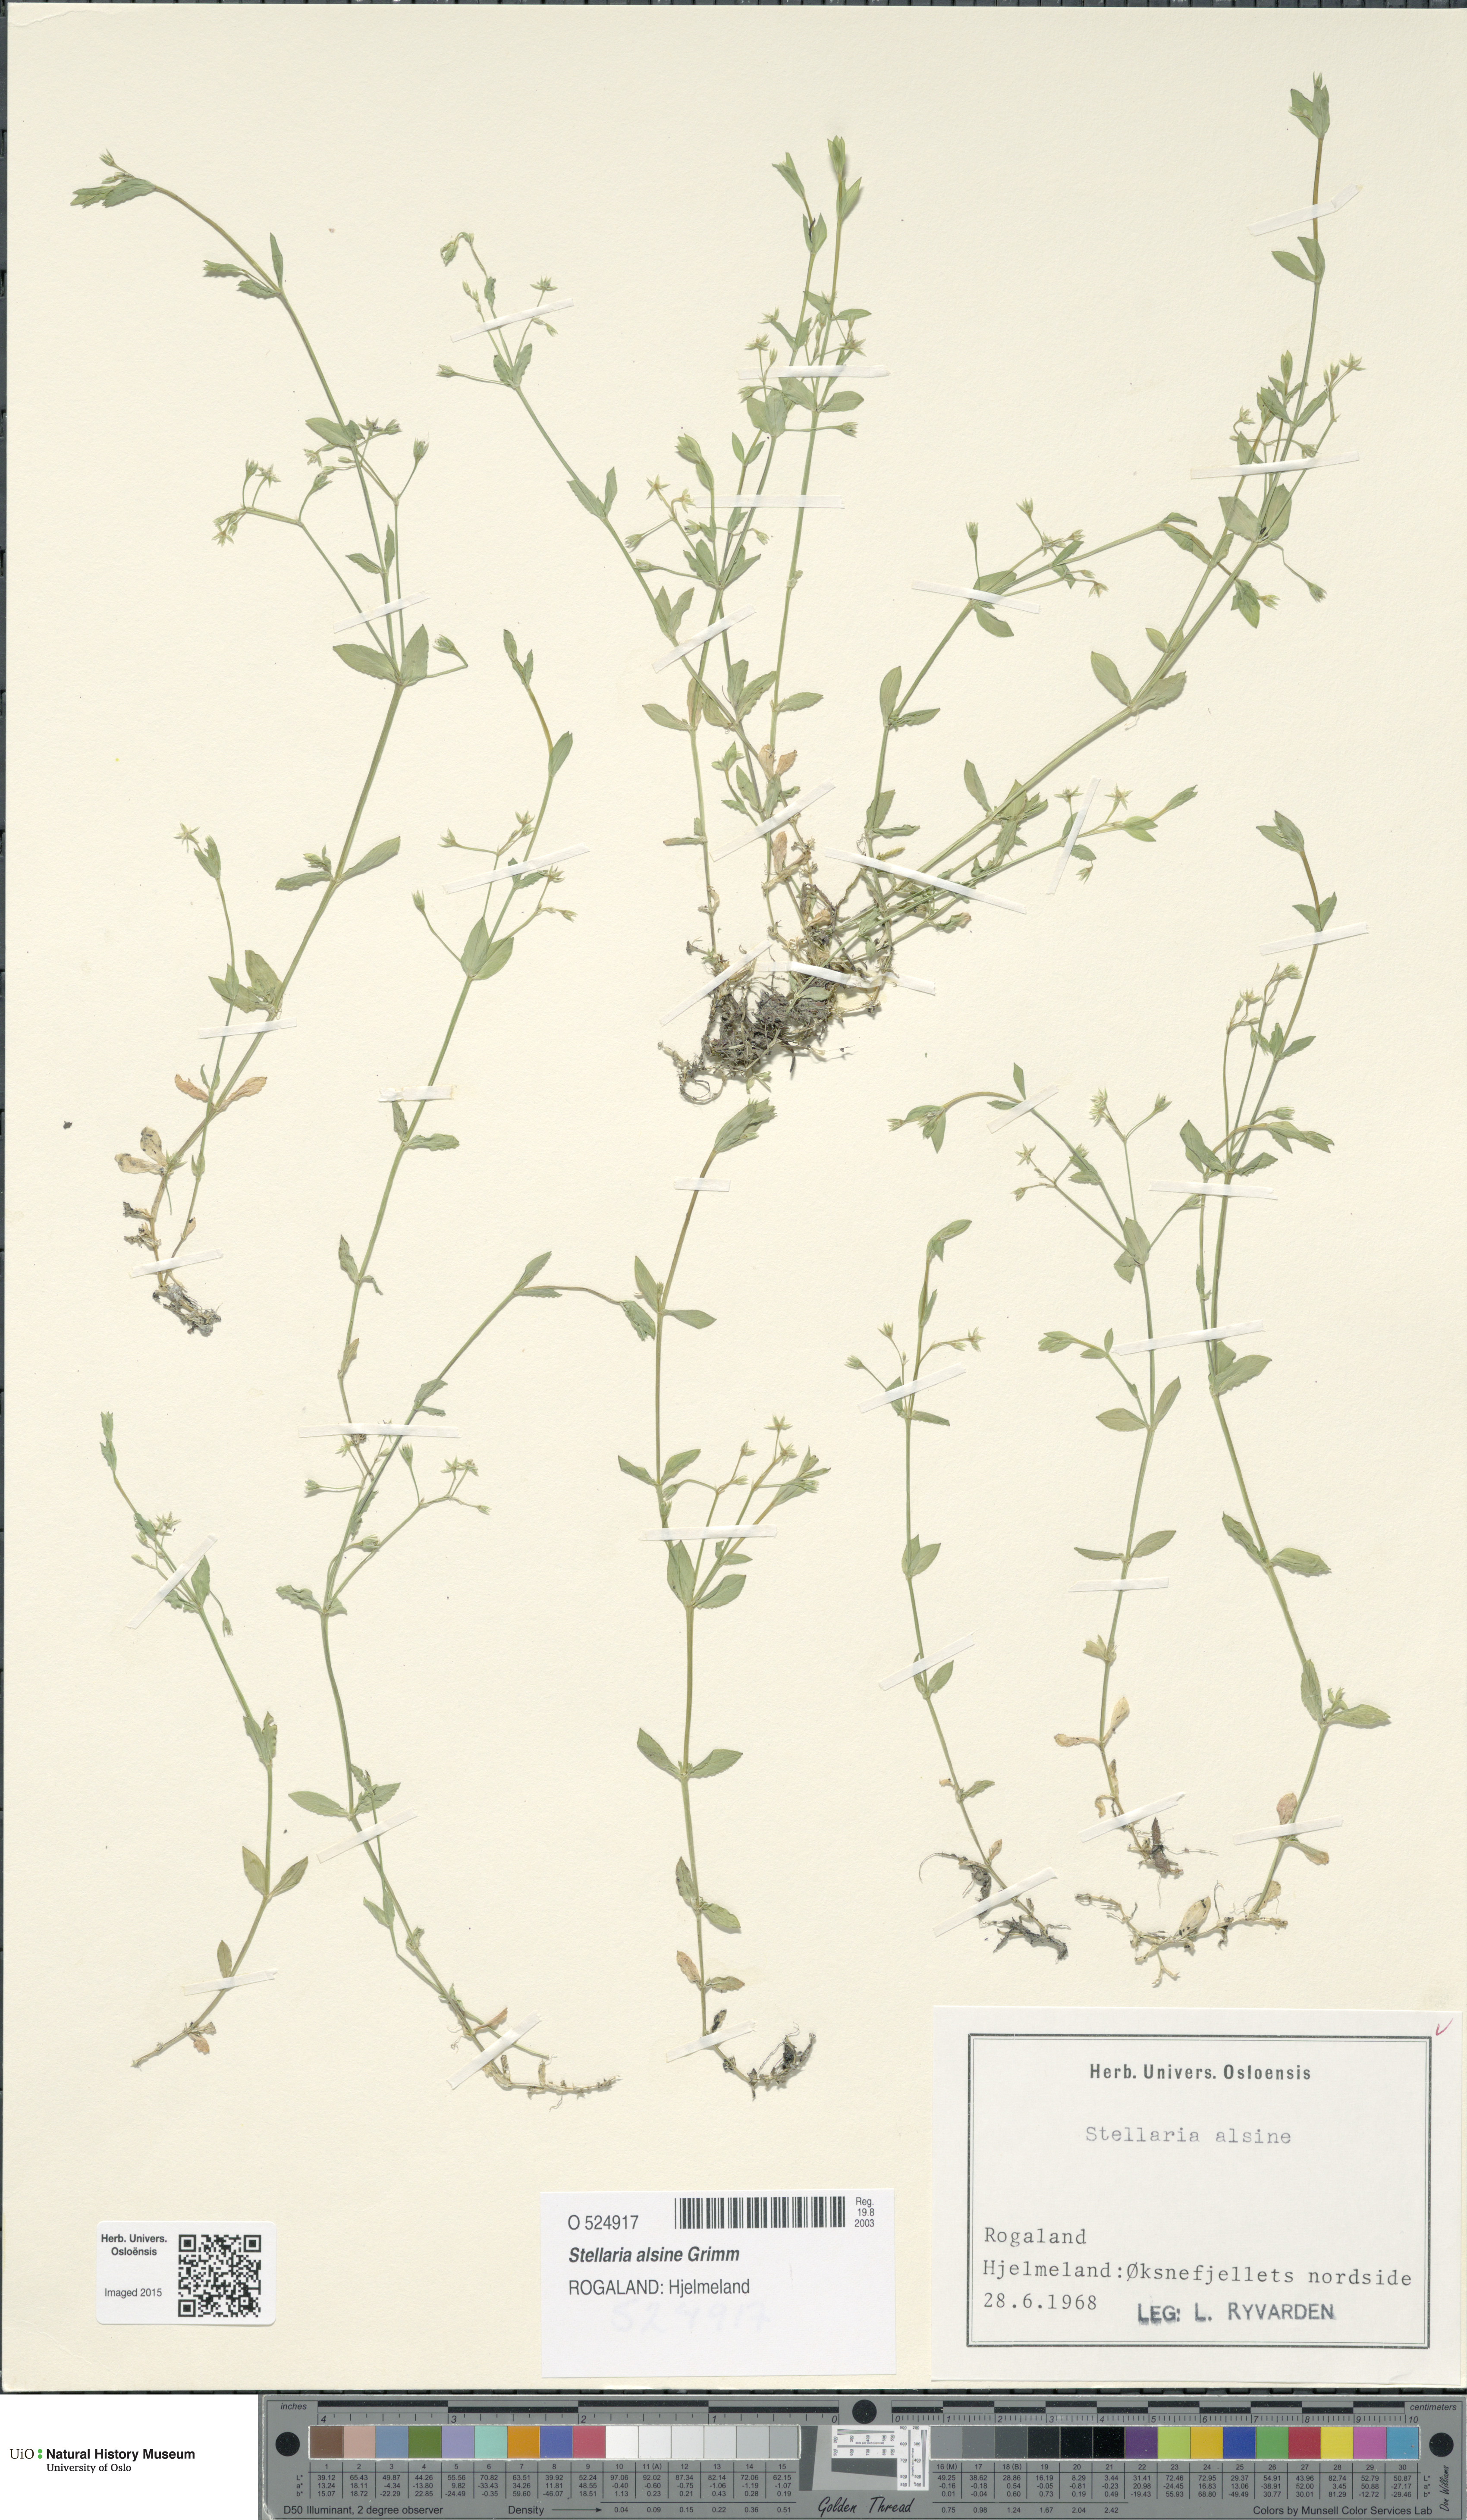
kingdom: Plantae
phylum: Tracheophyta
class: Magnoliopsida
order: Caryophyllales
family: Caryophyllaceae
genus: Stellaria
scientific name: Stellaria alsine
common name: Bog stitchwort
